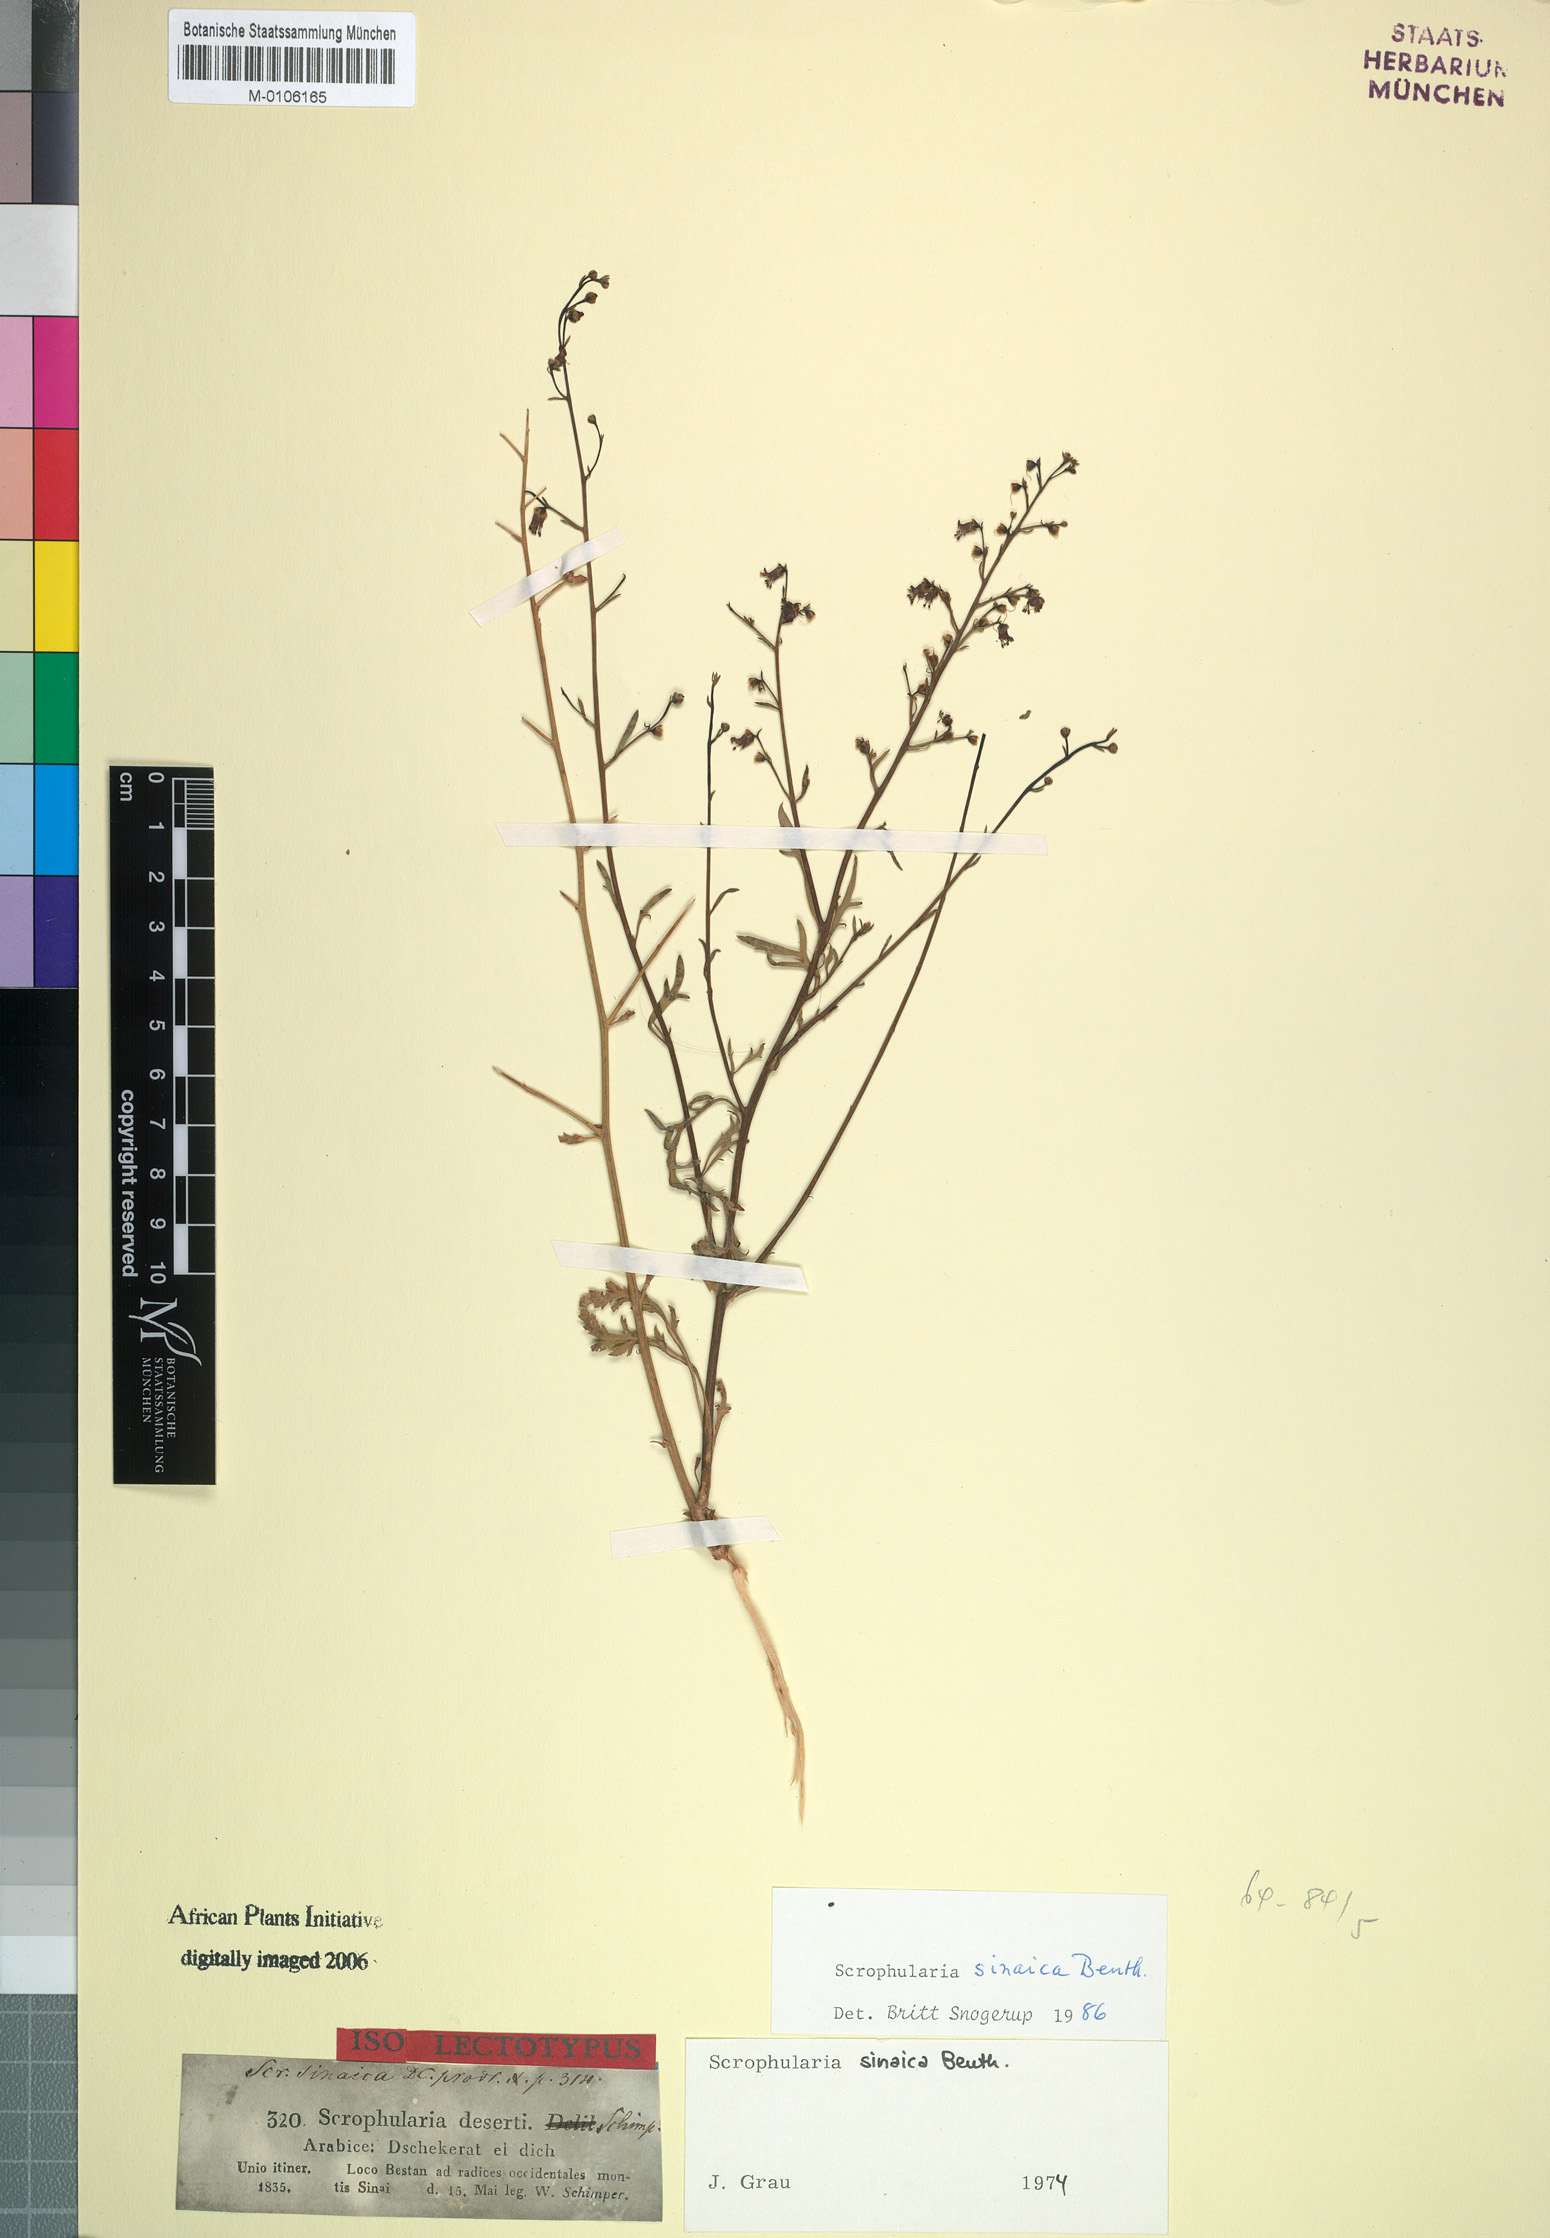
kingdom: Plantae
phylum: Tracheophyta
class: Magnoliopsida
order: Lamiales
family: Scrophulariaceae
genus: Scrophularia
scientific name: Scrophularia deserti
